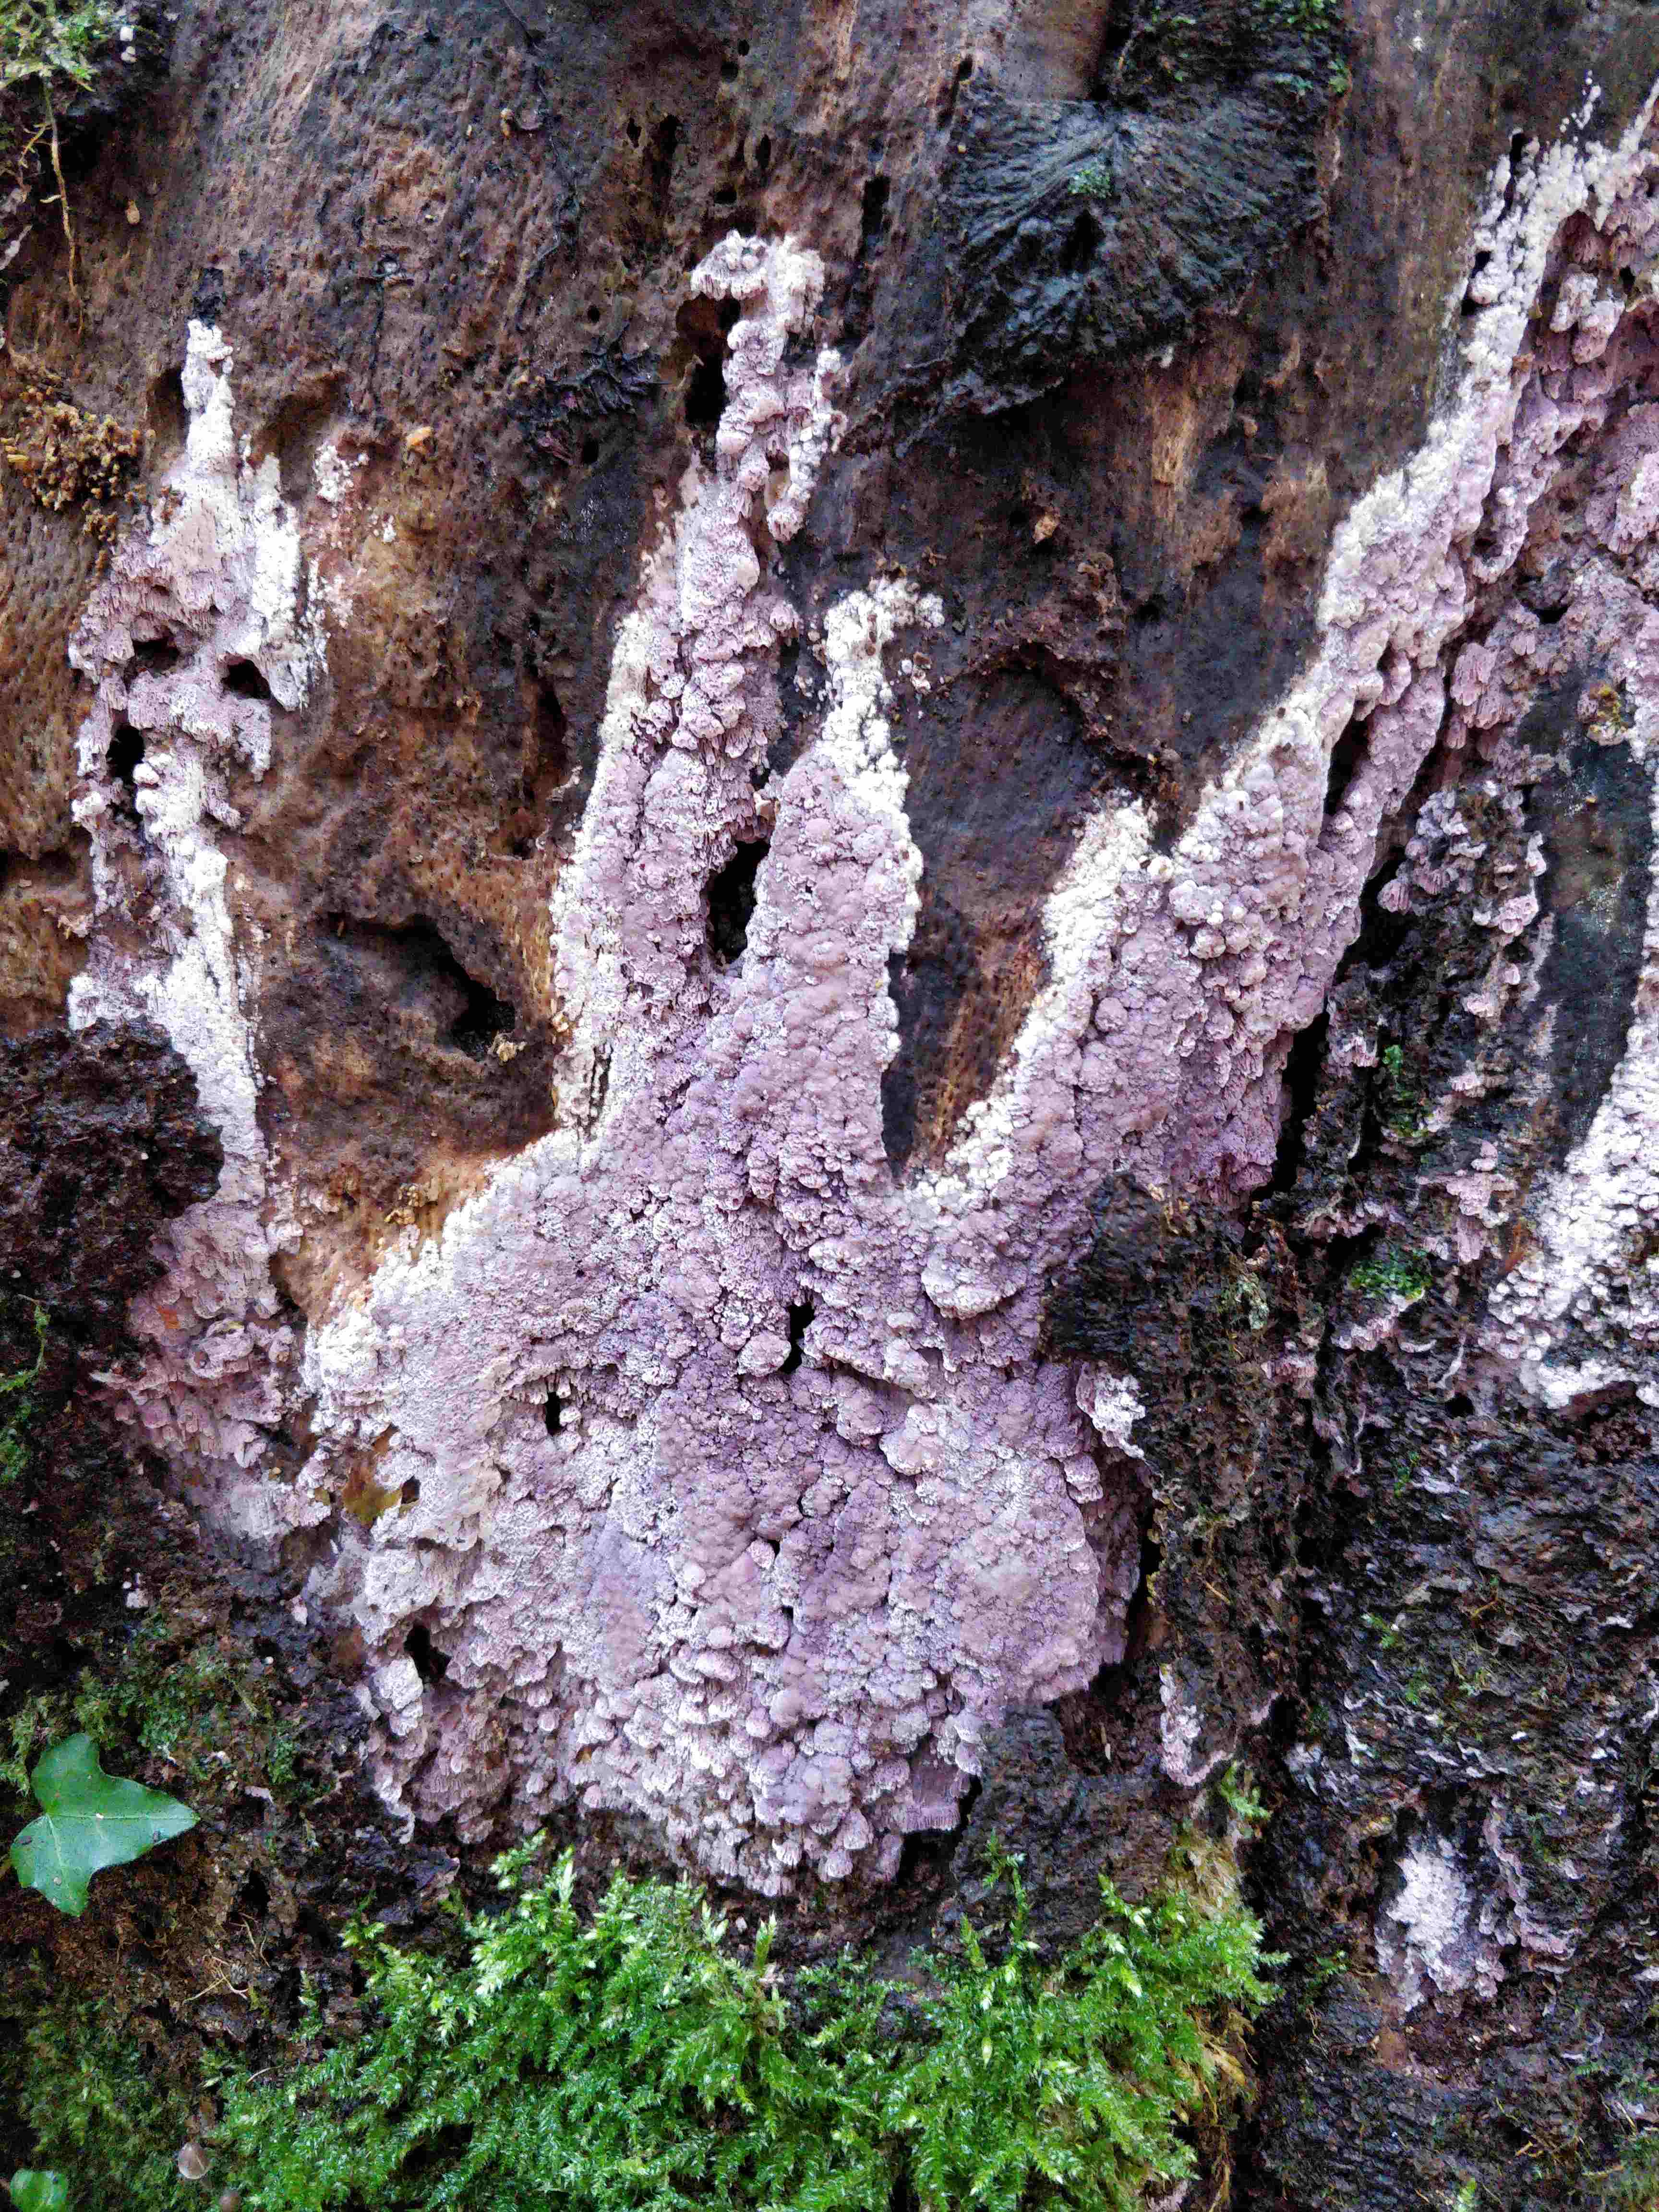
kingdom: Fungi
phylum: Basidiomycota
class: Agaricomycetes
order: Polyporales
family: Irpicaceae
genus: Ceriporia
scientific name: Ceriporia excelsa
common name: lilla voksporesvamp
